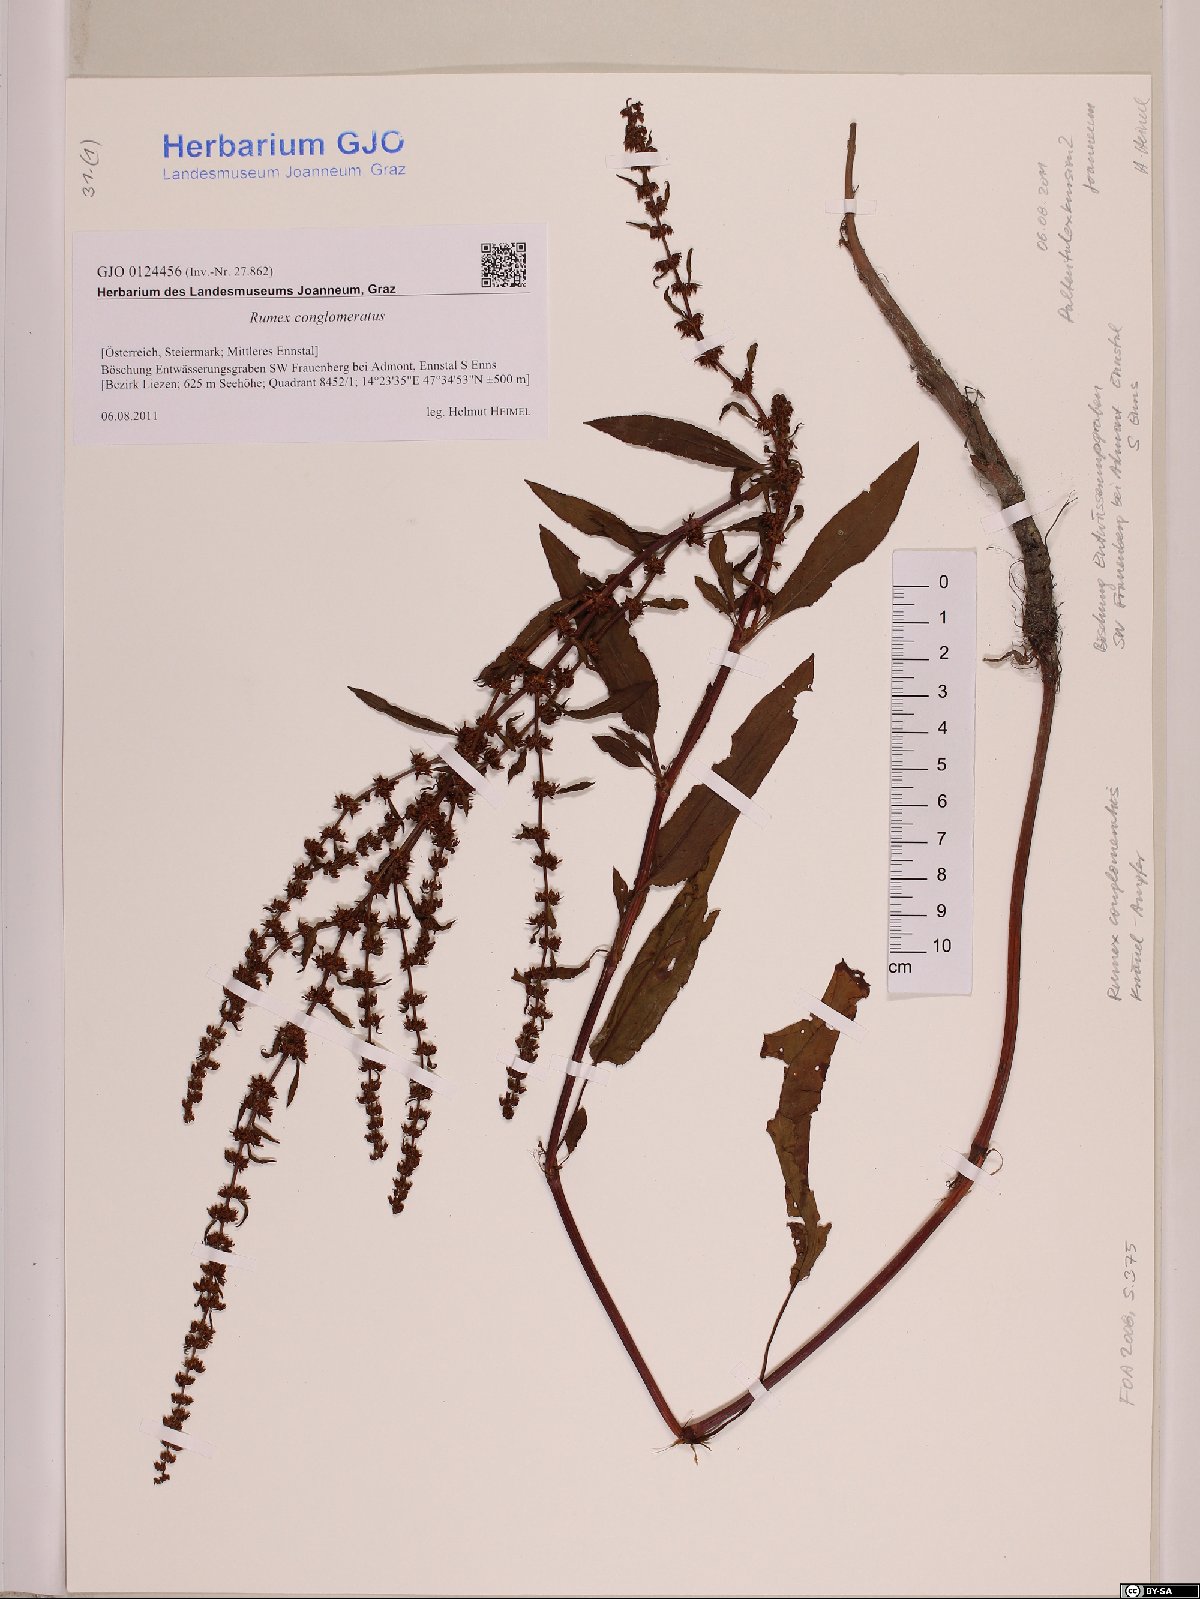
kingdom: Plantae
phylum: Tracheophyta
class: Magnoliopsida
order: Caryophyllales
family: Polygonaceae
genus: Rumex
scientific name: Rumex conglomeratus
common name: Clustered dock
